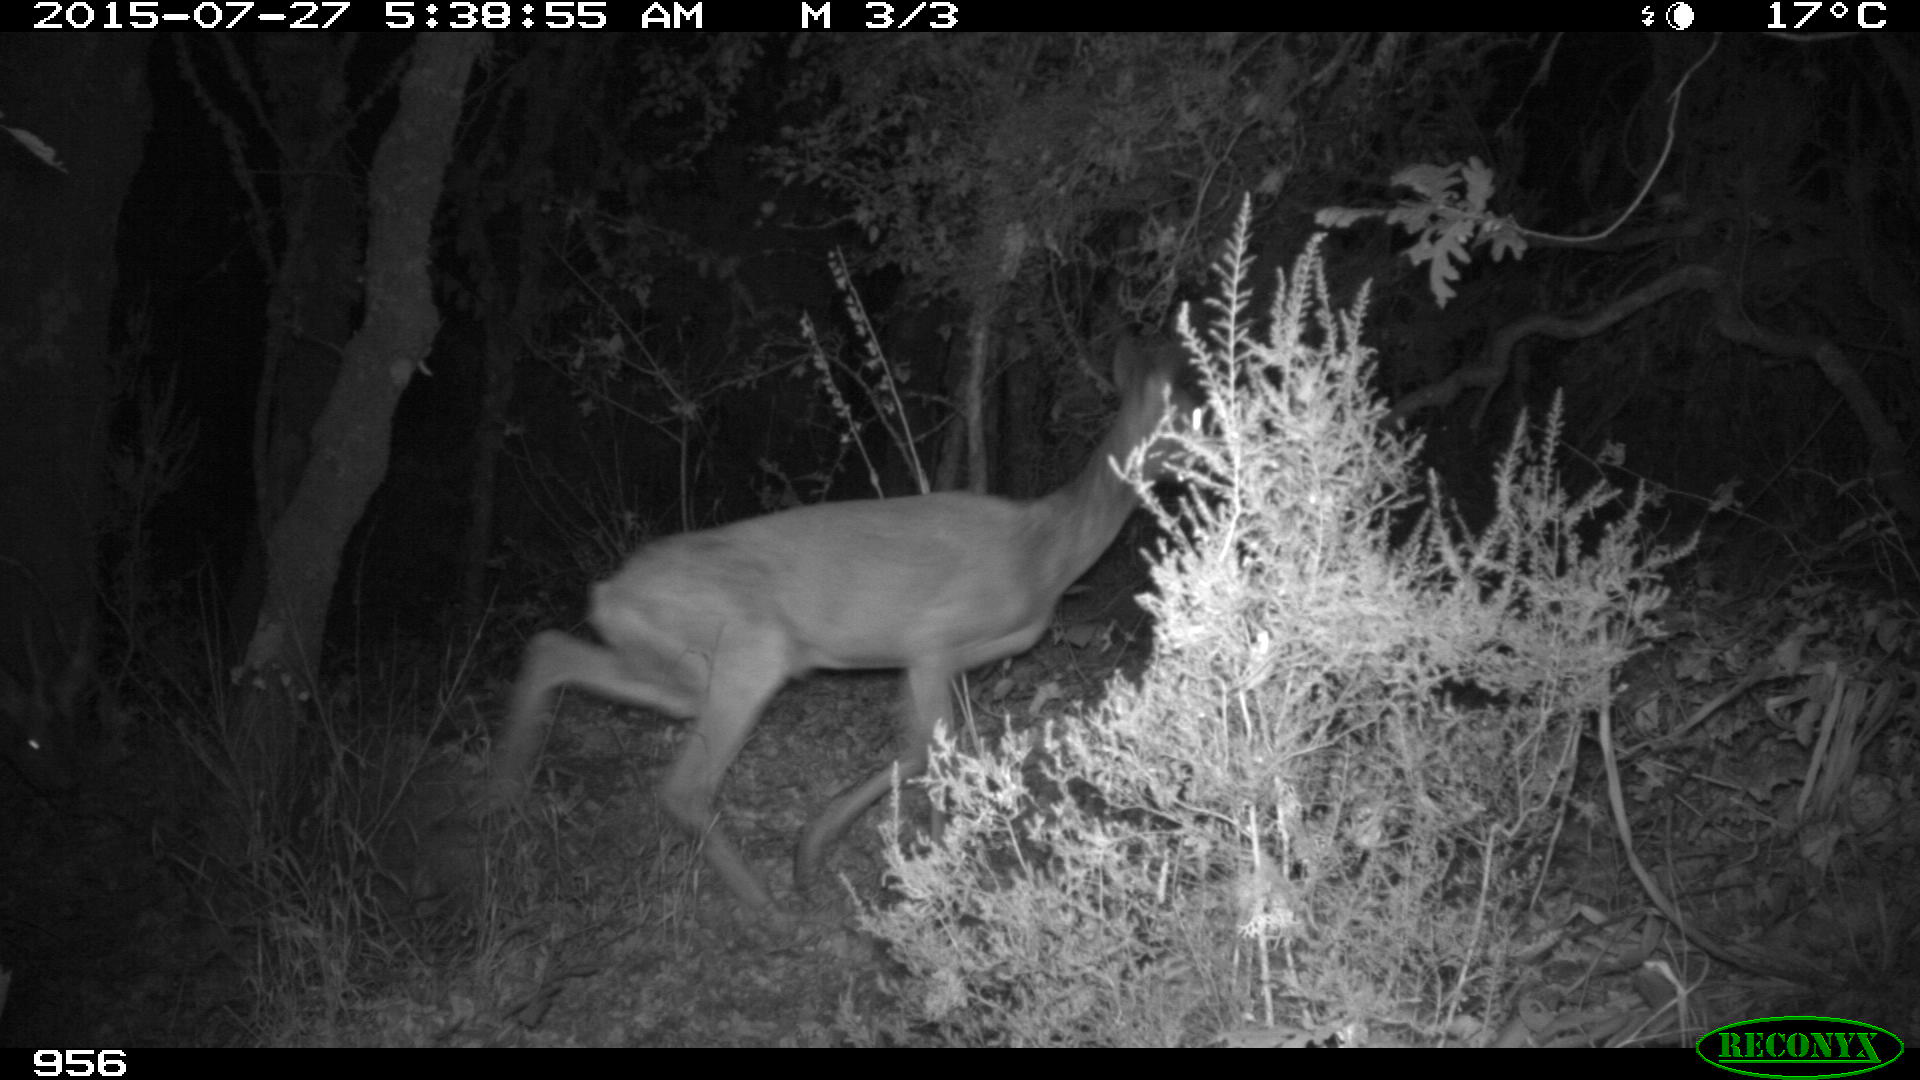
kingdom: Animalia
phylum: Chordata
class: Mammalia
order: Artiodactyla
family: Cervidae
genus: Capreolus
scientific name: Capreolus capreolus
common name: Western roe deer
